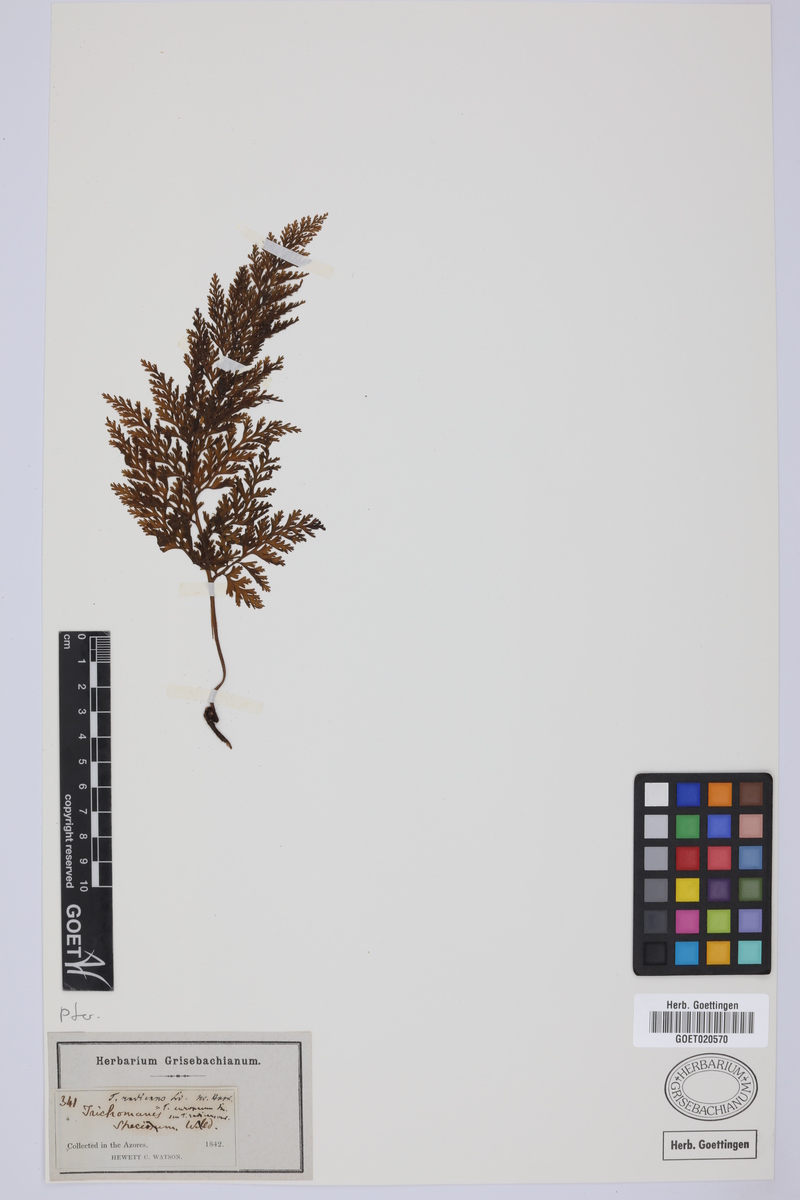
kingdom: Plantae
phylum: Tracheophyta
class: Polypodiopsida
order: Hymenophyllales
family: Hymenophyllaceae
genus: Vandenboschia
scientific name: Vandenboschia radicans
